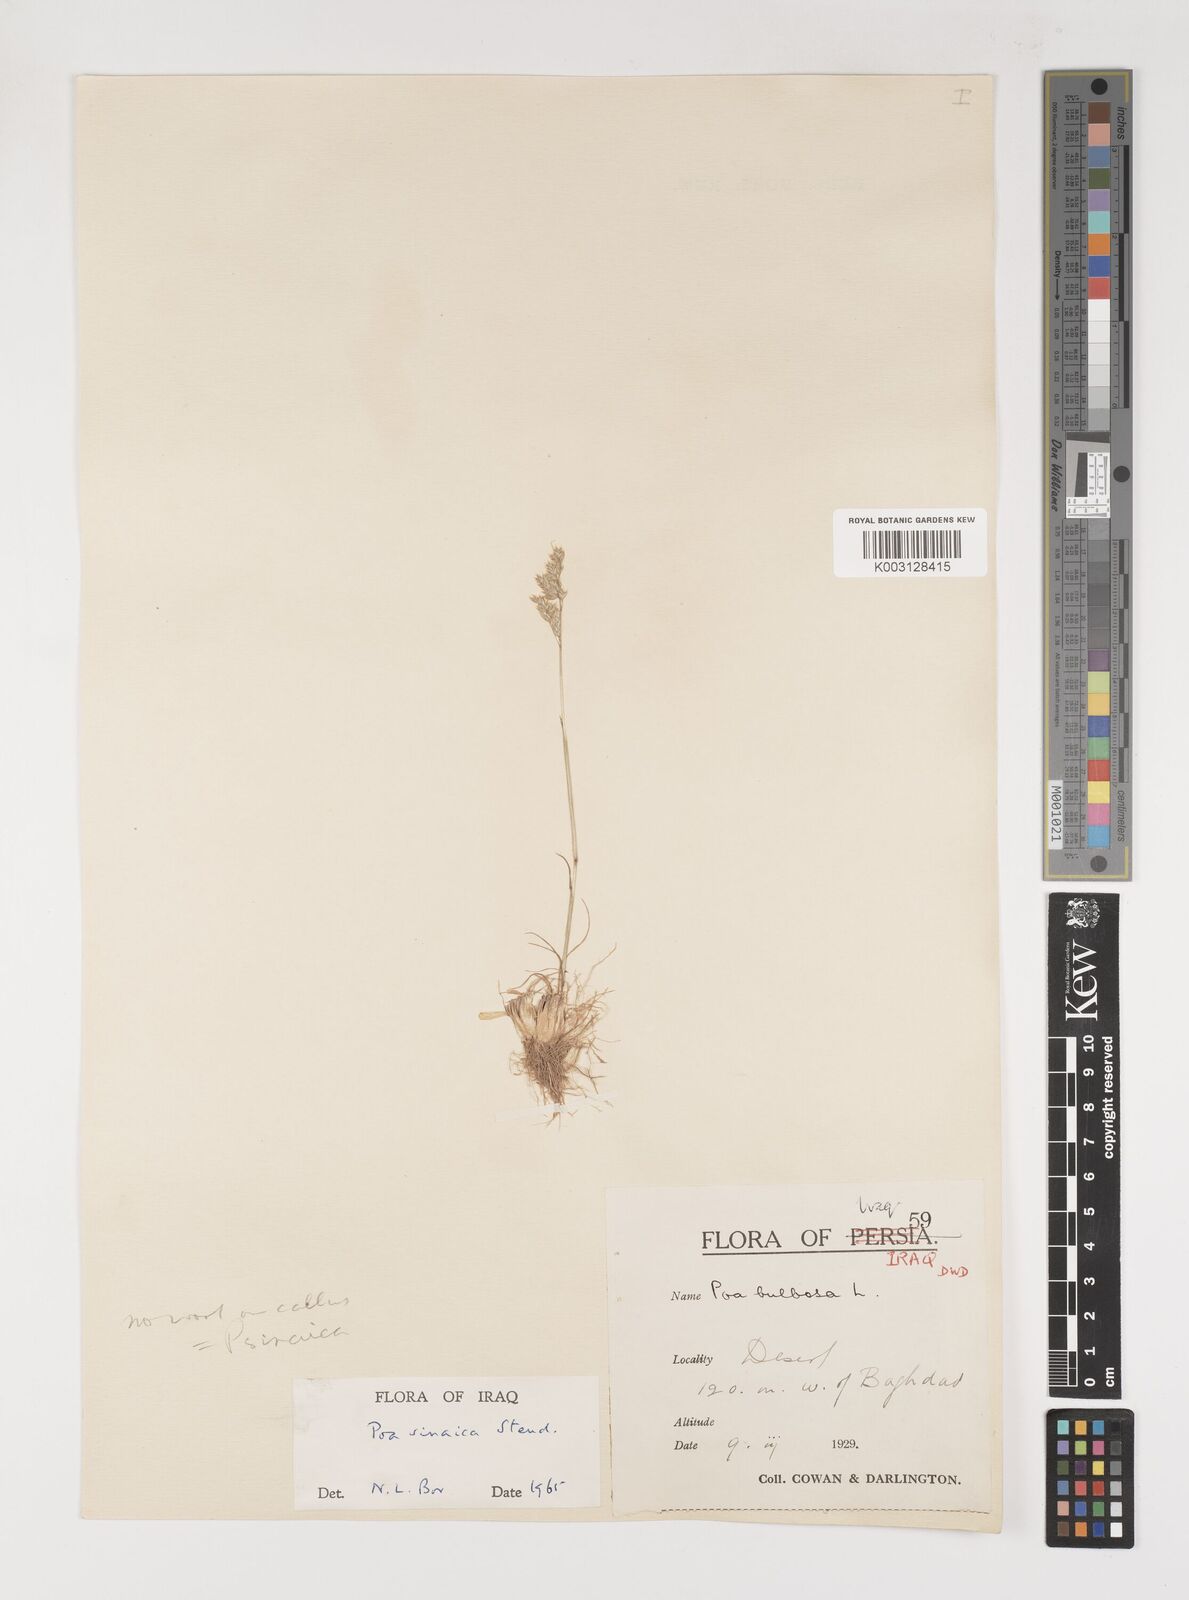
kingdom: Plantae
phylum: Tracheophyta
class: Liliopsida
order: Poales
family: Poaceae
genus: Poa
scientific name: Poa sinaica
